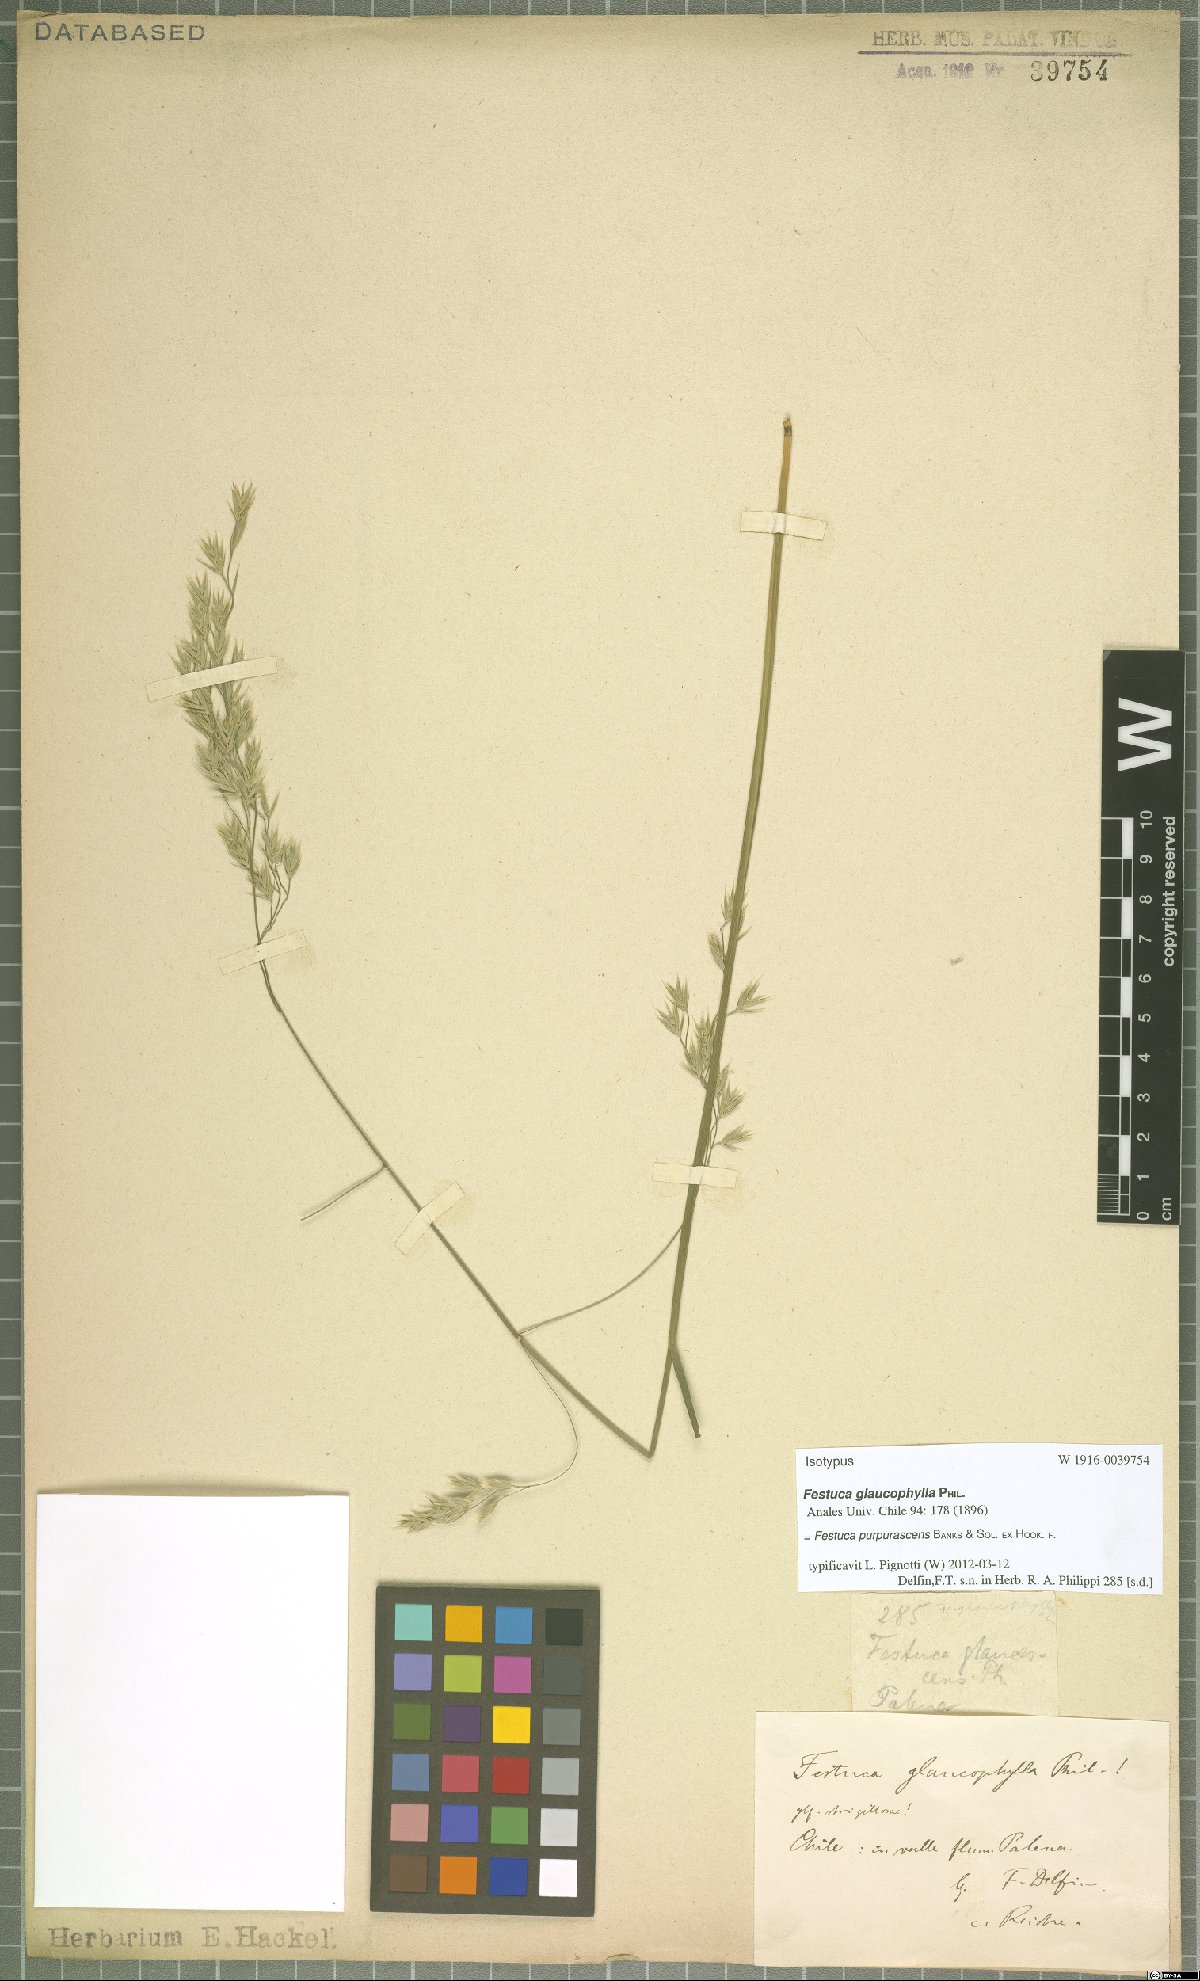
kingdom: Plantae
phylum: Tracheophyta
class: Liliopsida
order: Poales
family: Poaceae
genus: Festuca
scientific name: Festuca purpurascens
